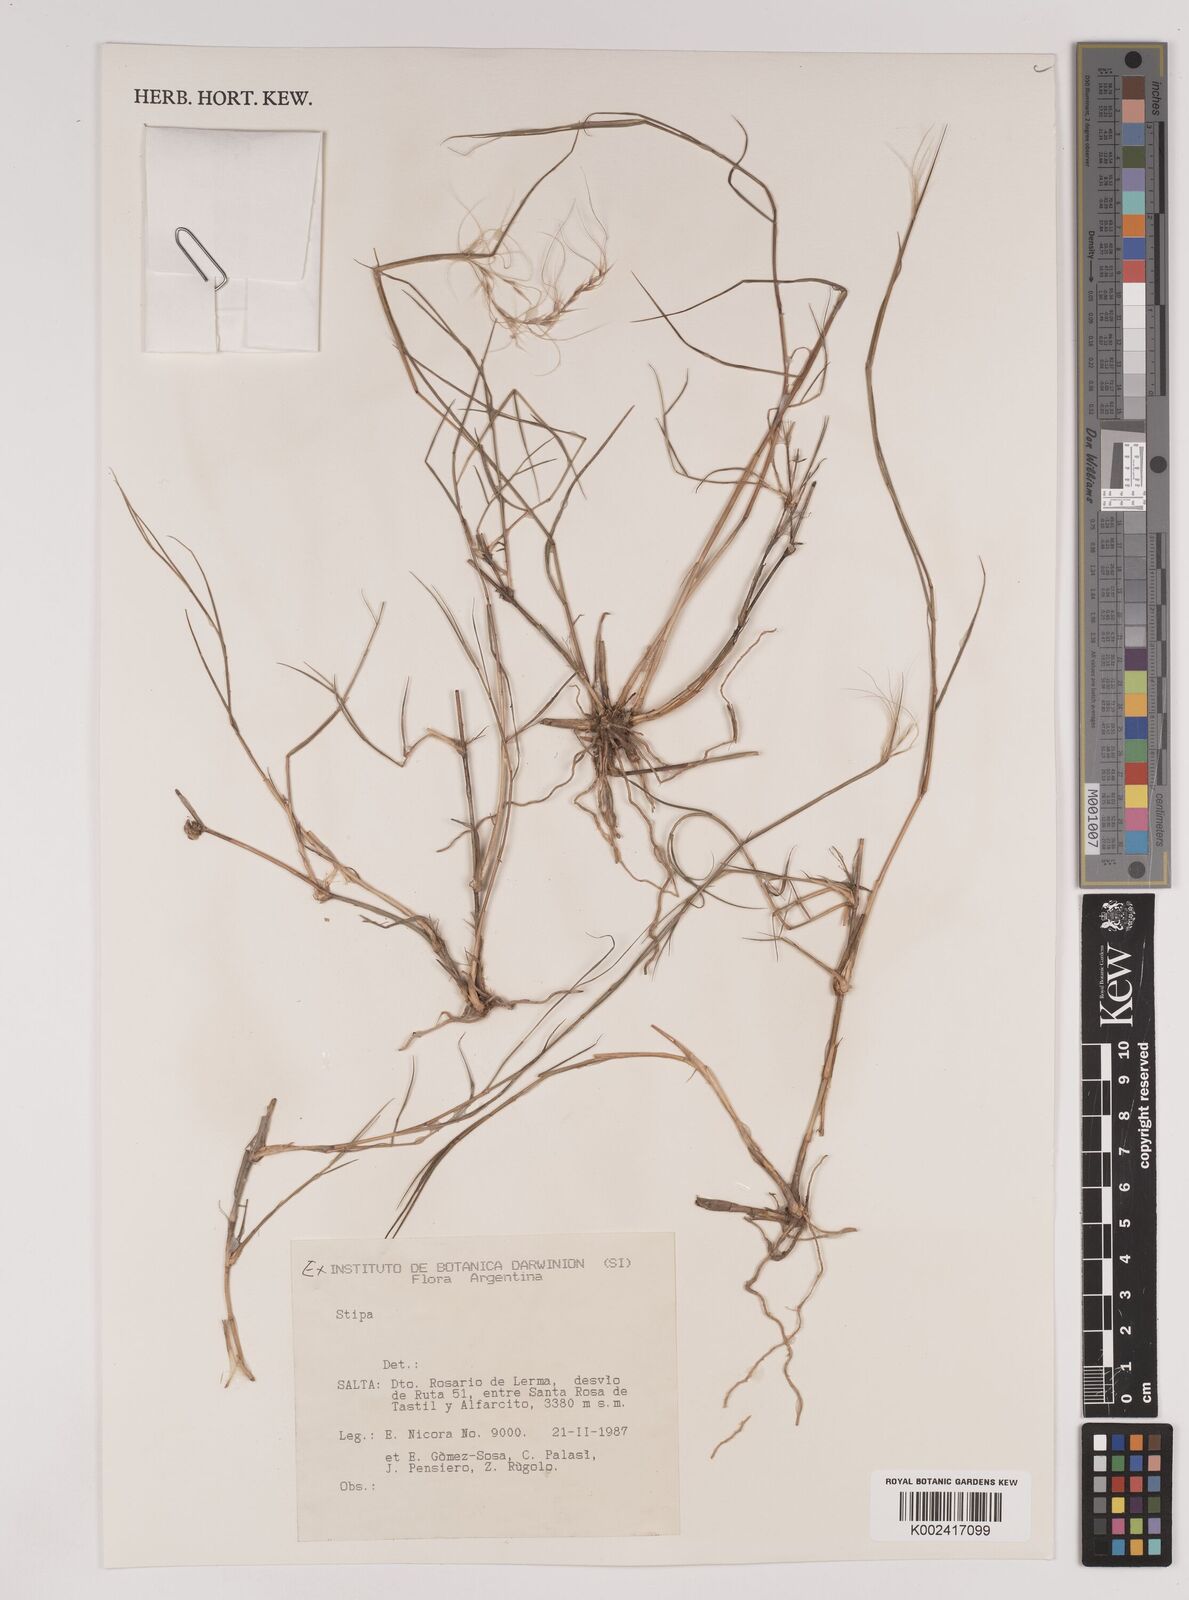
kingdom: Plantae
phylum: Tracheophyta
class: Liliopsida
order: Poales
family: Poaceae
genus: Stipa
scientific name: Stipa
